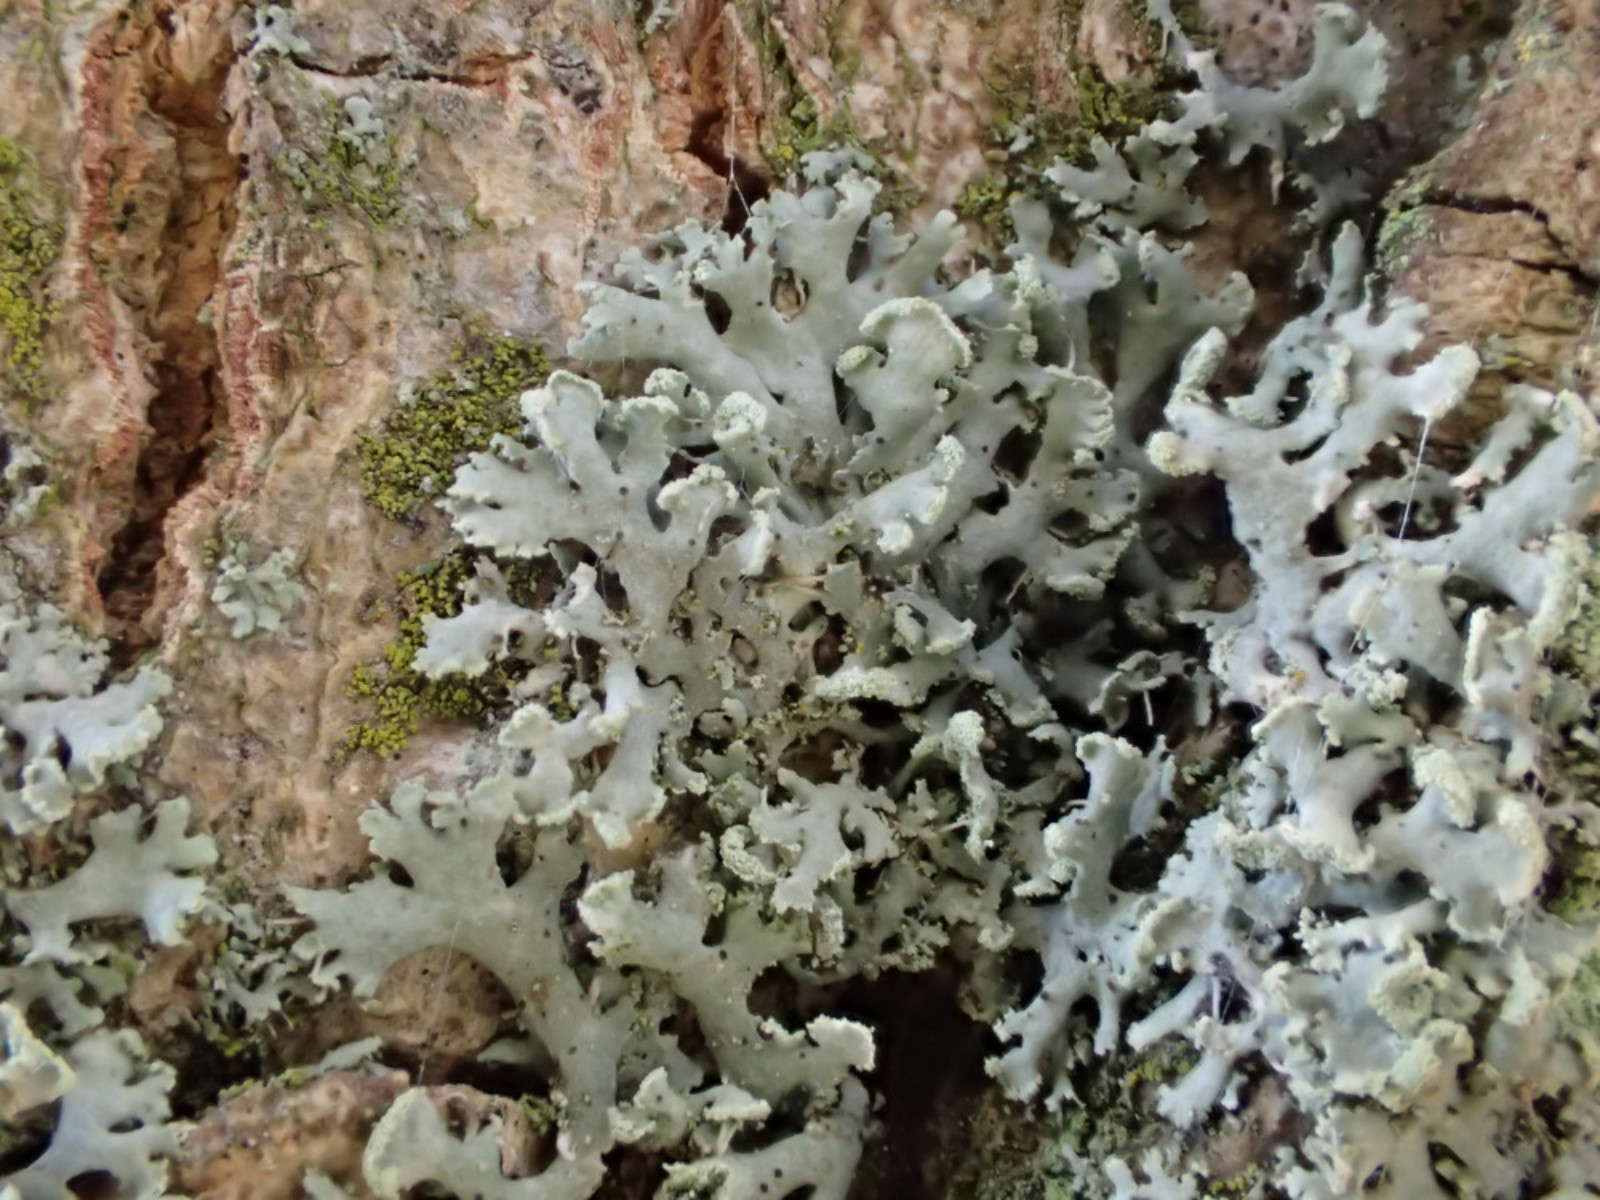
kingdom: Fungi
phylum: Ascomycota
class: Lecanoromycetes
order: Caliciales
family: Physciaceae
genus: Physcia
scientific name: Physcia tenella
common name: spæd rosetlav
